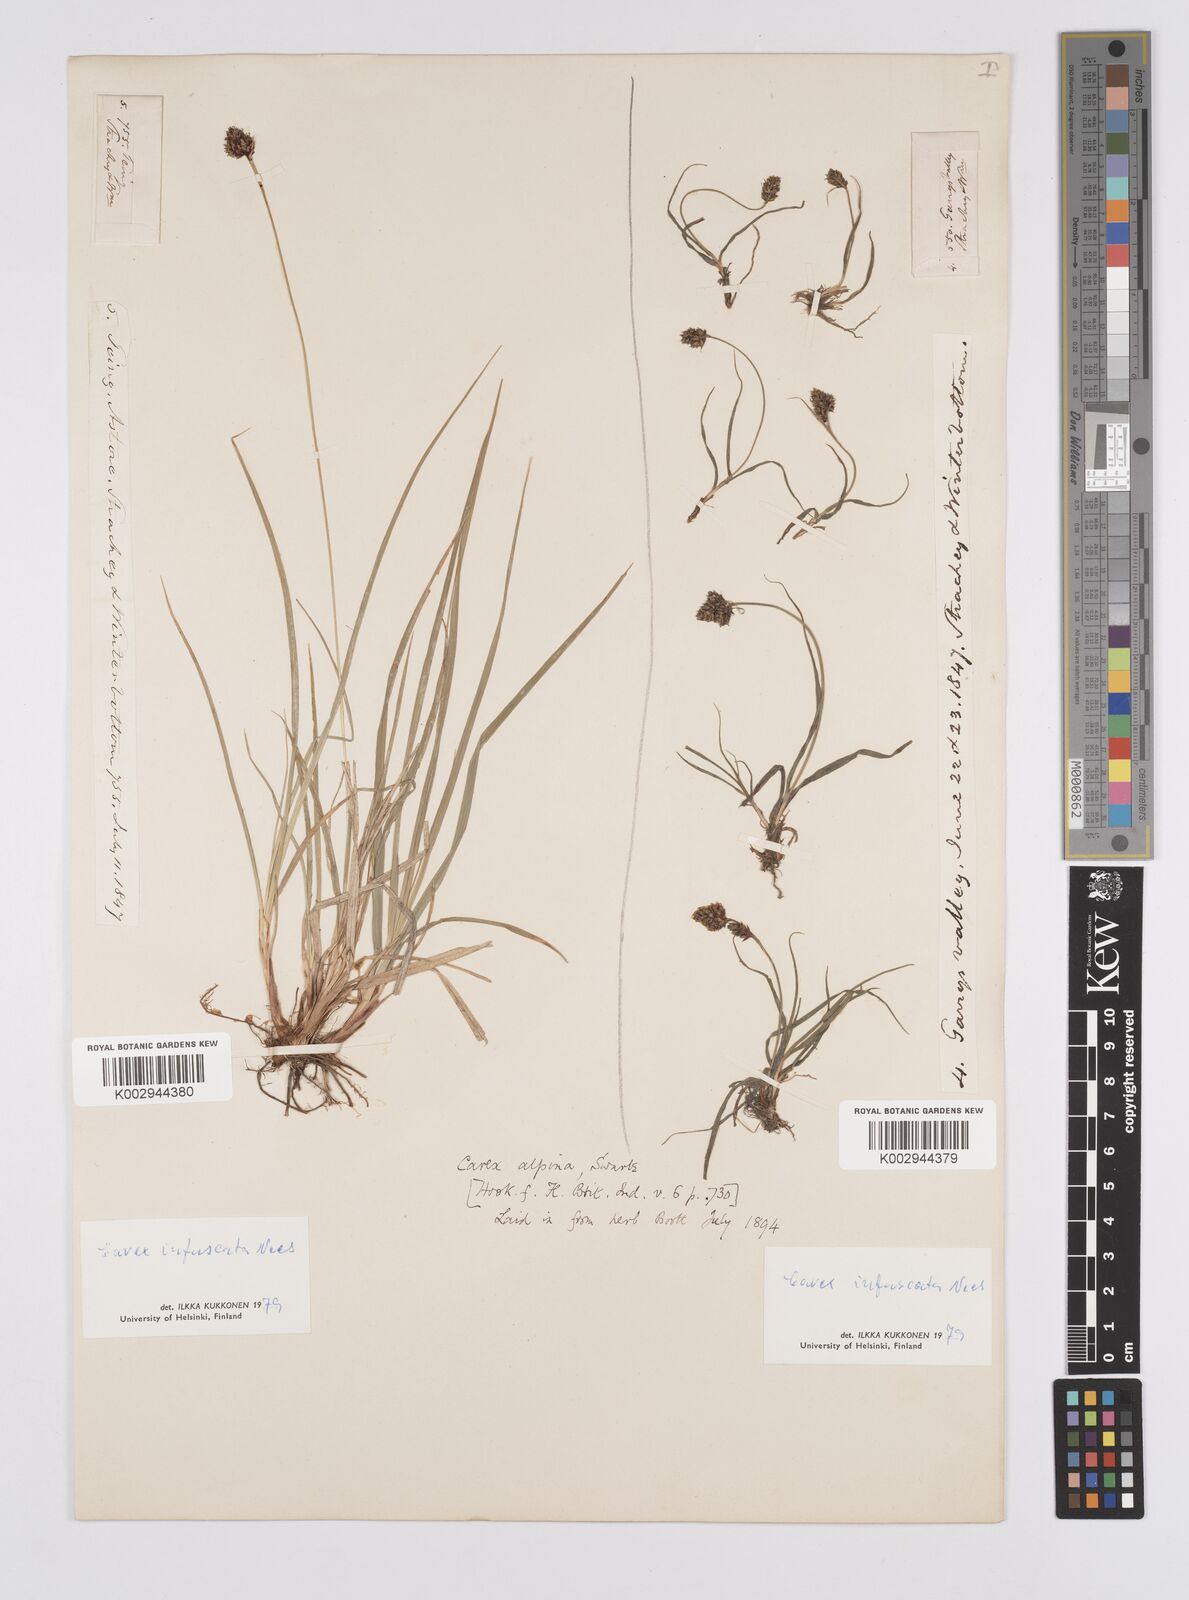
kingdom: Plantae
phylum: Tracheophyta
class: Liliopsida
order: Poales
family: Cyperaceae
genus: Carex
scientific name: Carex norvegica
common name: Close-headed alpine-sedge
